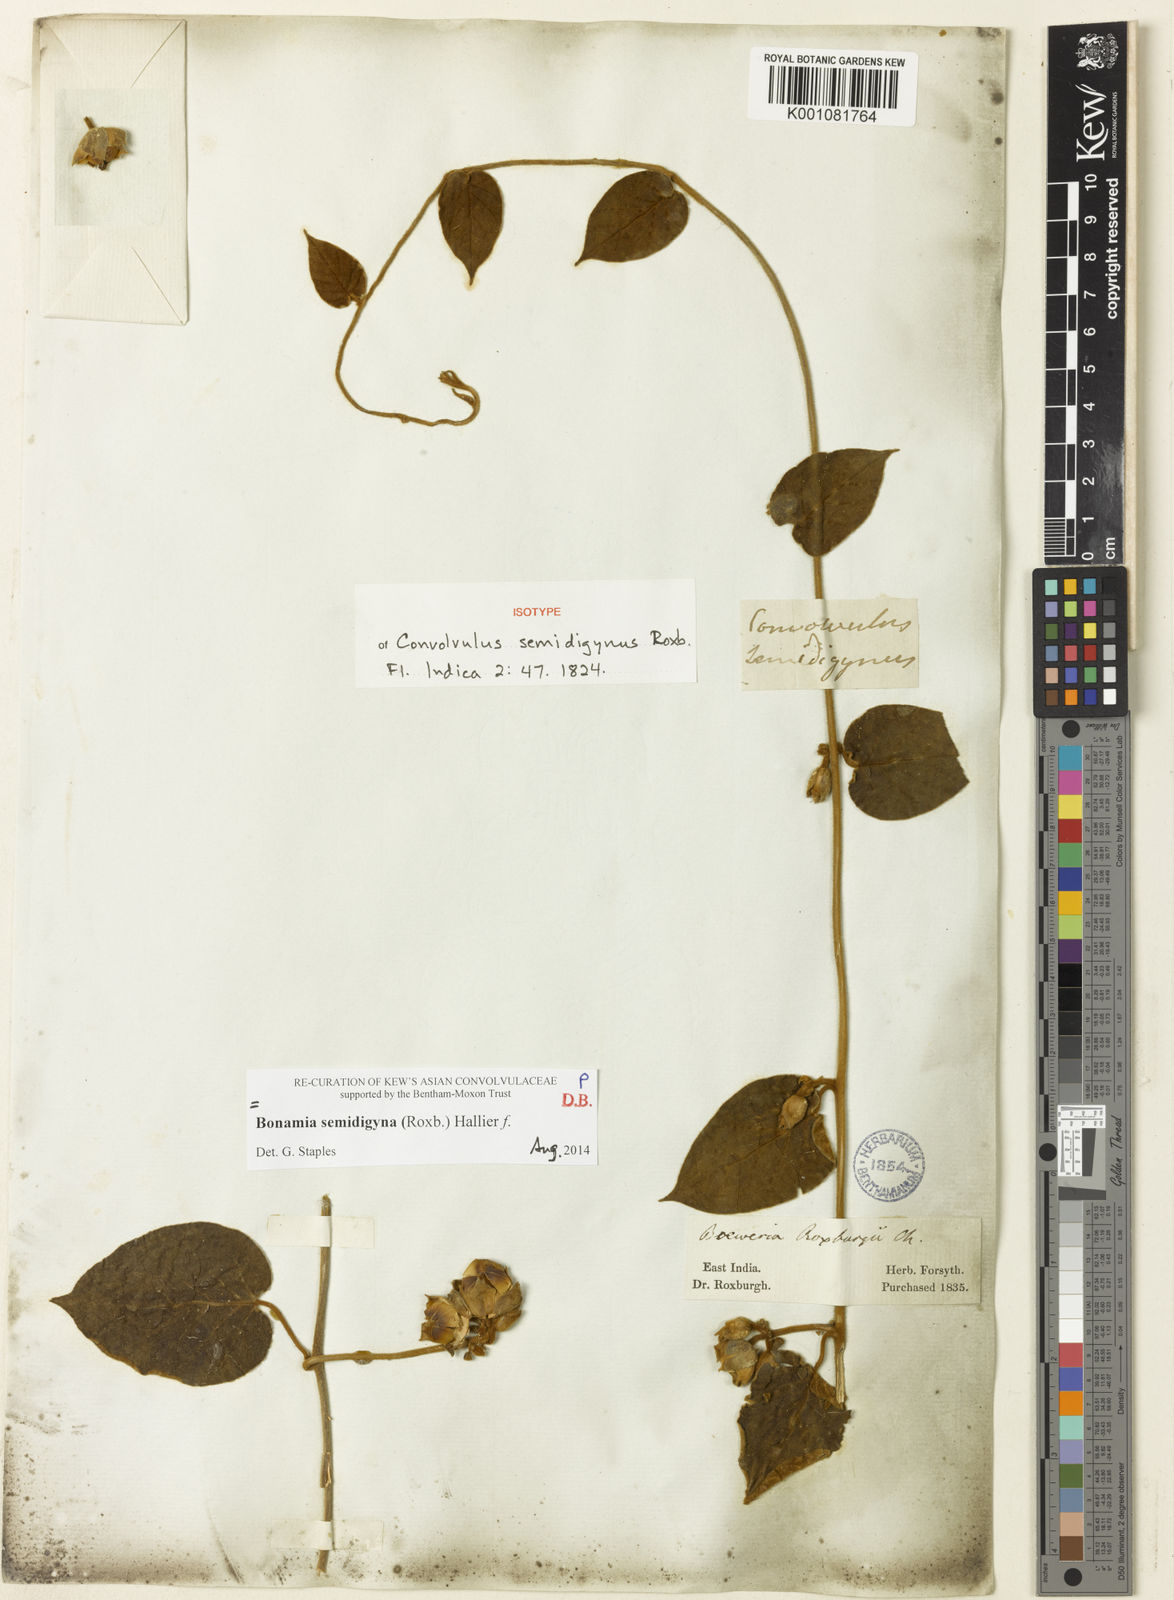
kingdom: Plantae
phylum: Tracheophyta
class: Magnoliopsida
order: Solanales
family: Convolvulaceae
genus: Bonamia
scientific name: Bonamia semidigyna
